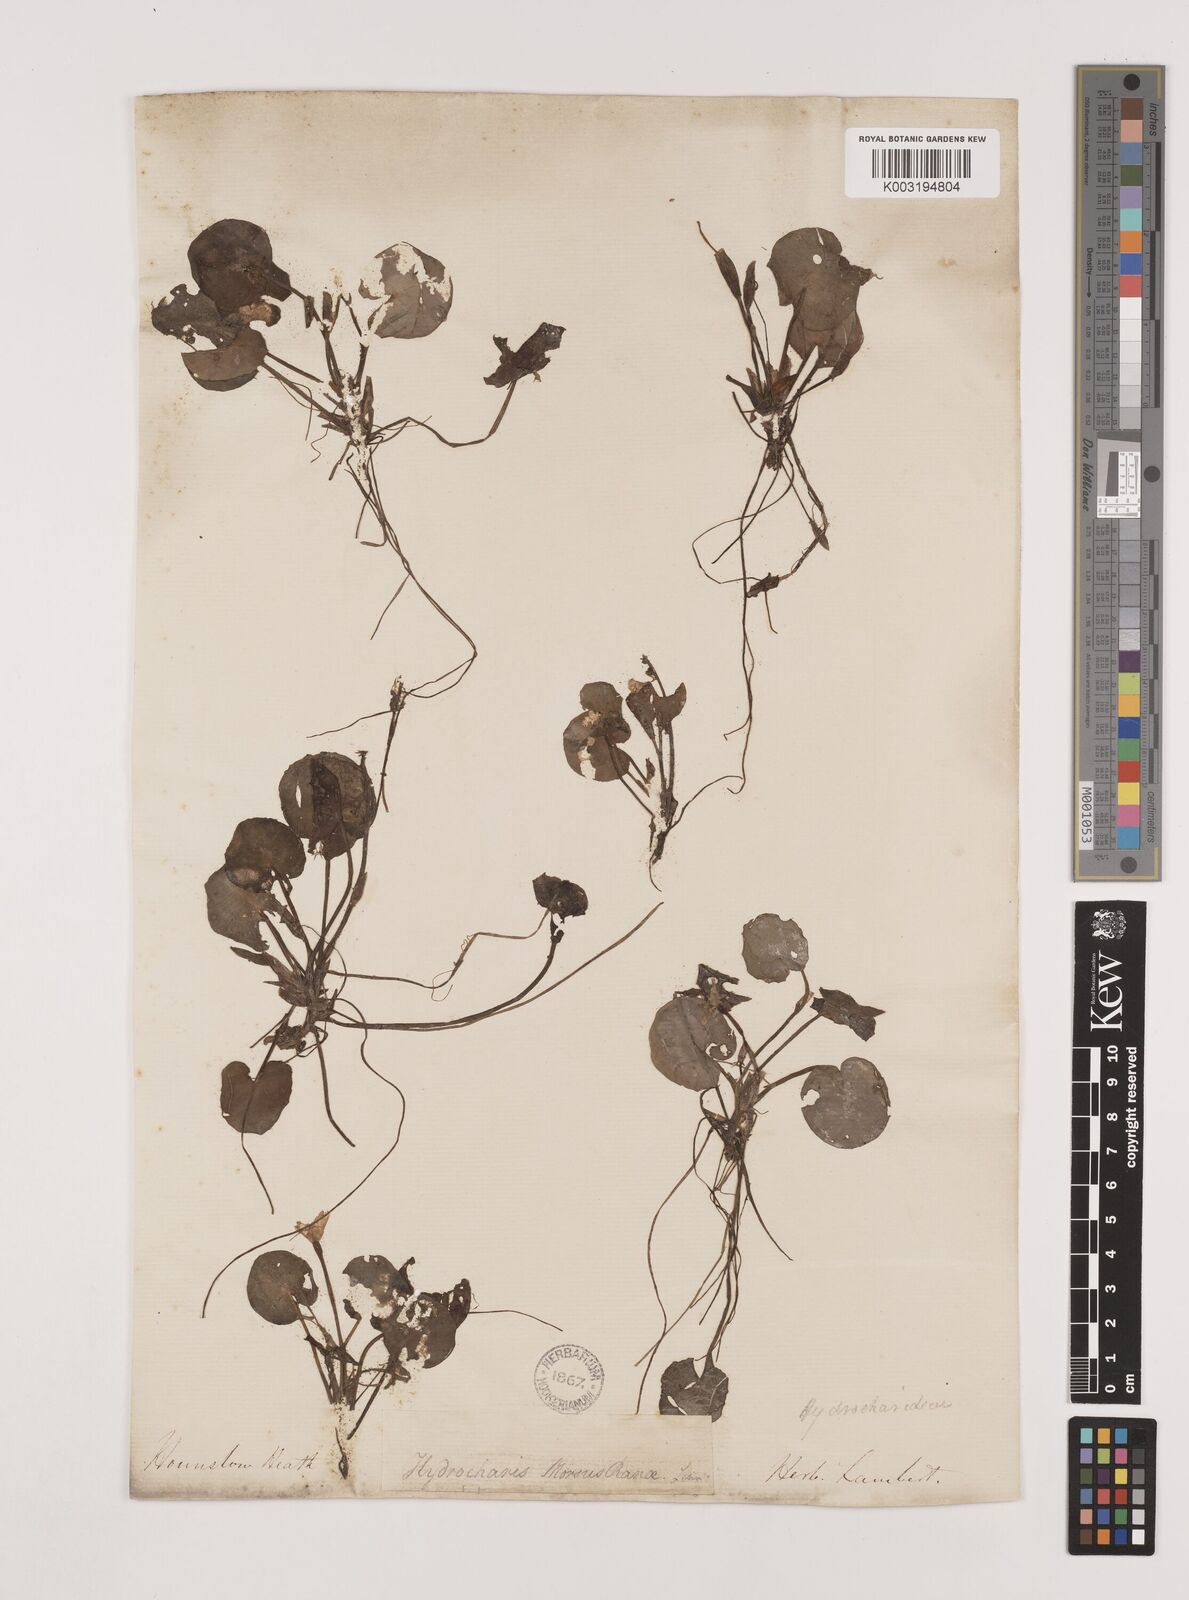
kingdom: Plantae
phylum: Tracheophyta
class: Liliopsida
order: Alismatales
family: Hydrocharitaceae
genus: Hydrocharis
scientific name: Hydrocharis morsus-ranae
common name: Frogbit
